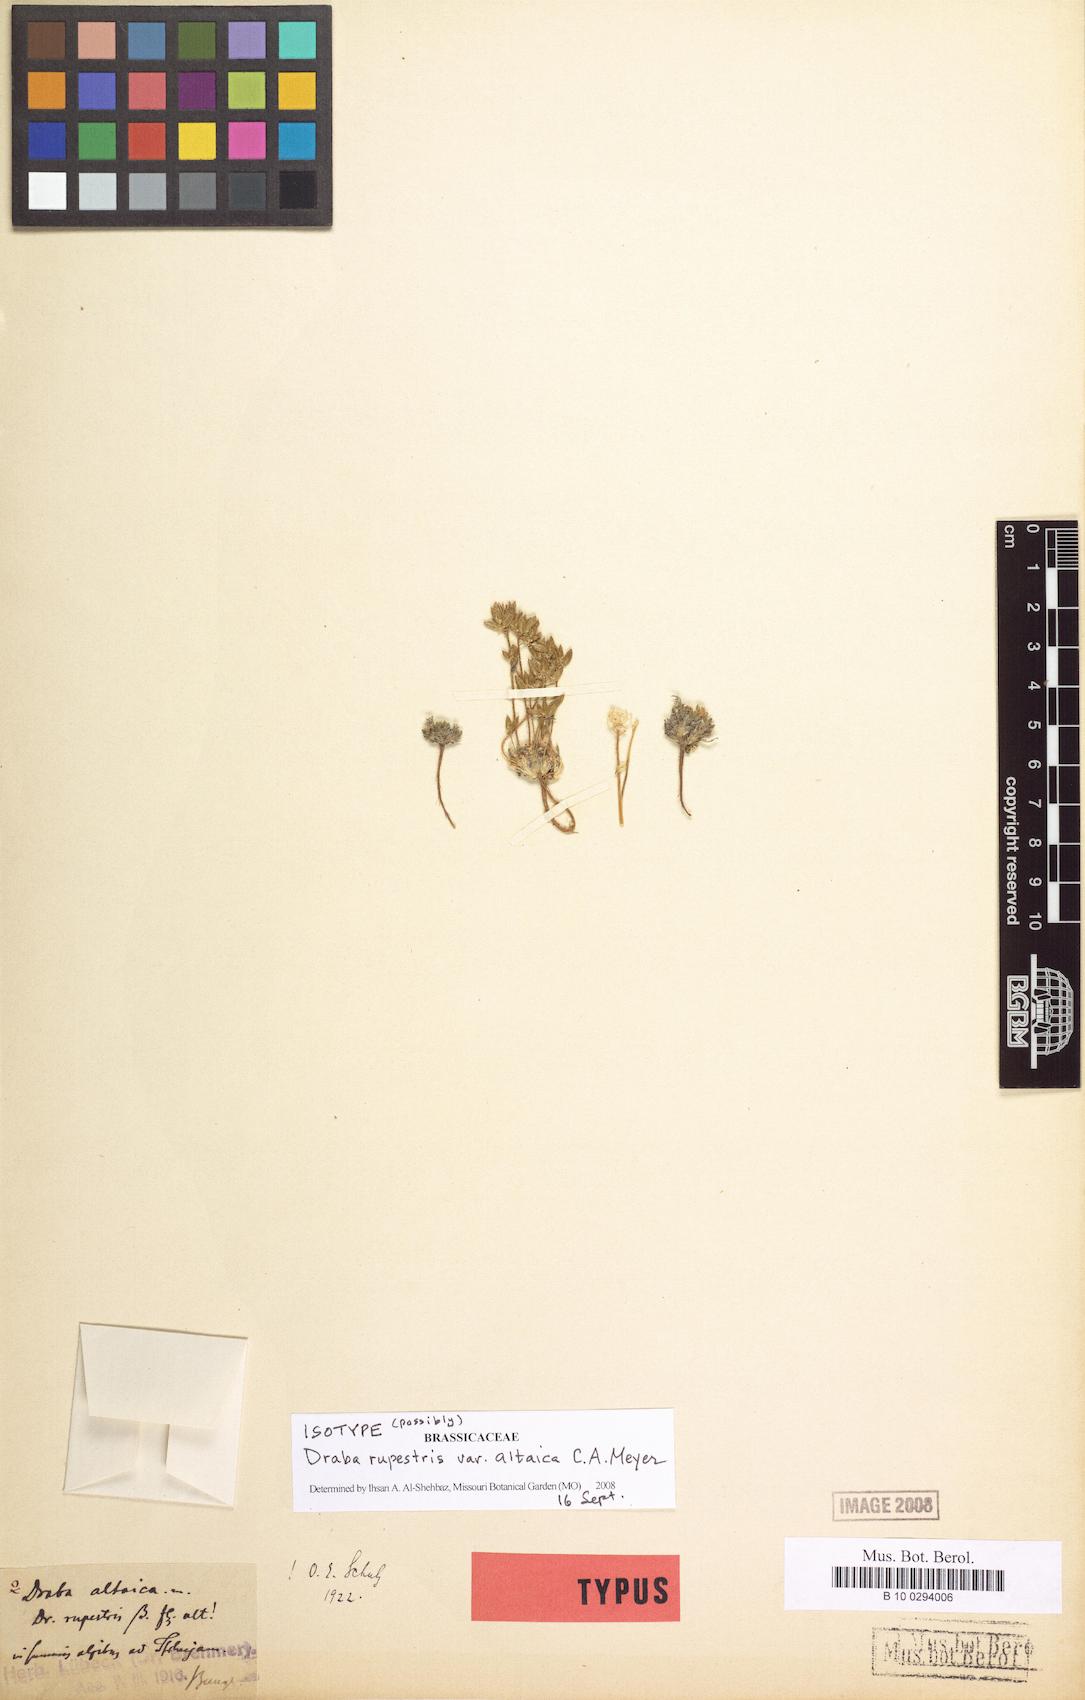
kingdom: Plantae
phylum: Tracheophyta
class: Magnoliopsida
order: Brassicales
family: Brassicaceae
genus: Draba
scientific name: Draba altaica
